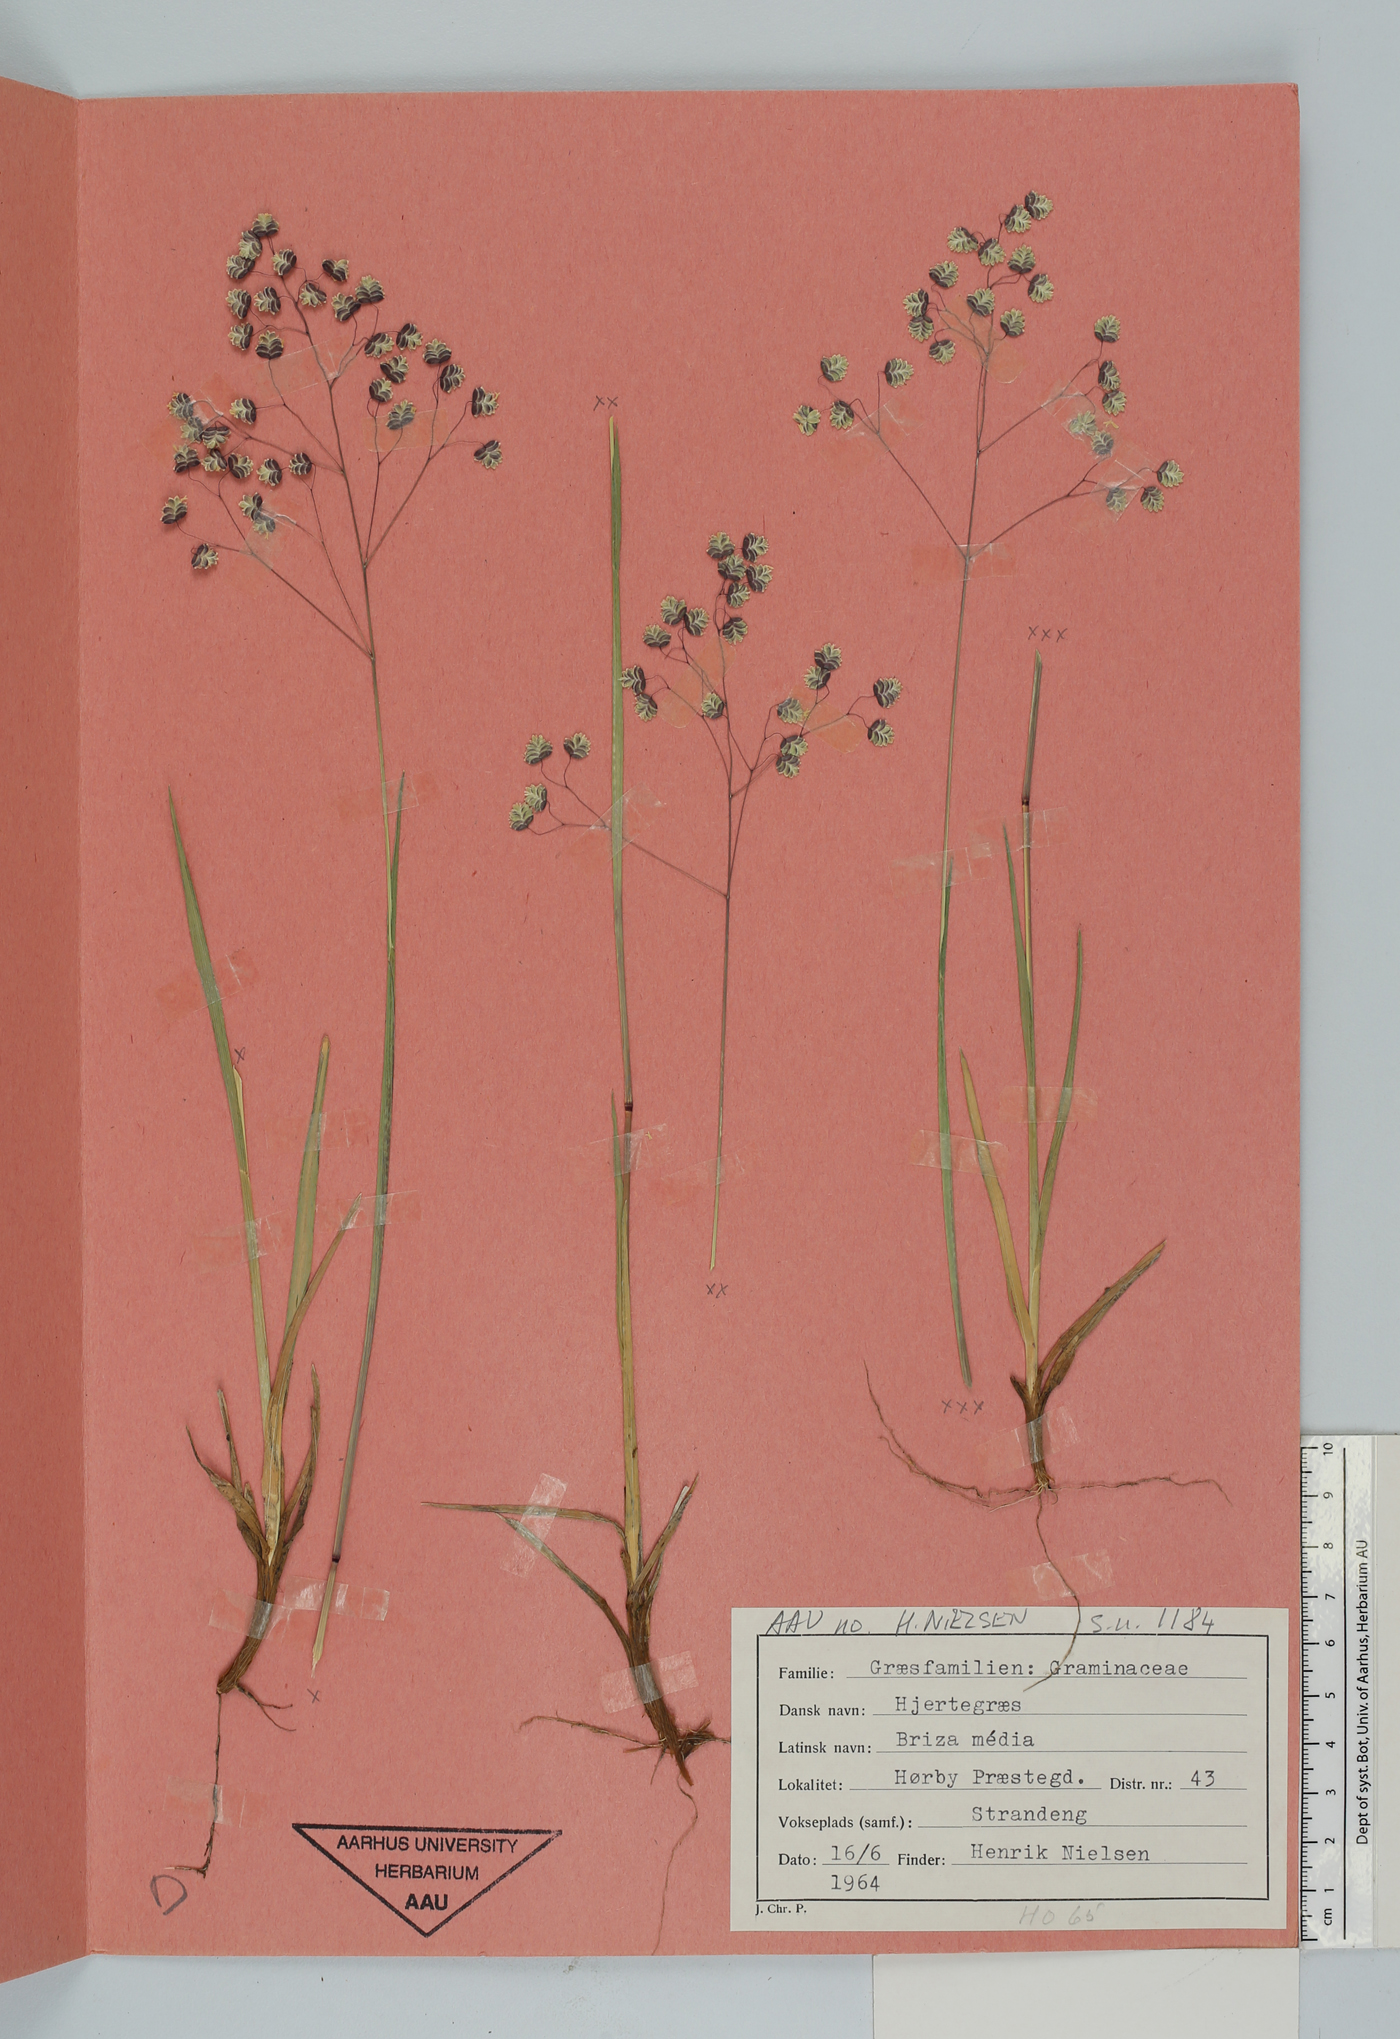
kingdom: Plantae
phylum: Tracheophyta
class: Liliopsida
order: Poales
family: Poaceae
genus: Briza
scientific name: Briza media
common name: Quaking grass
